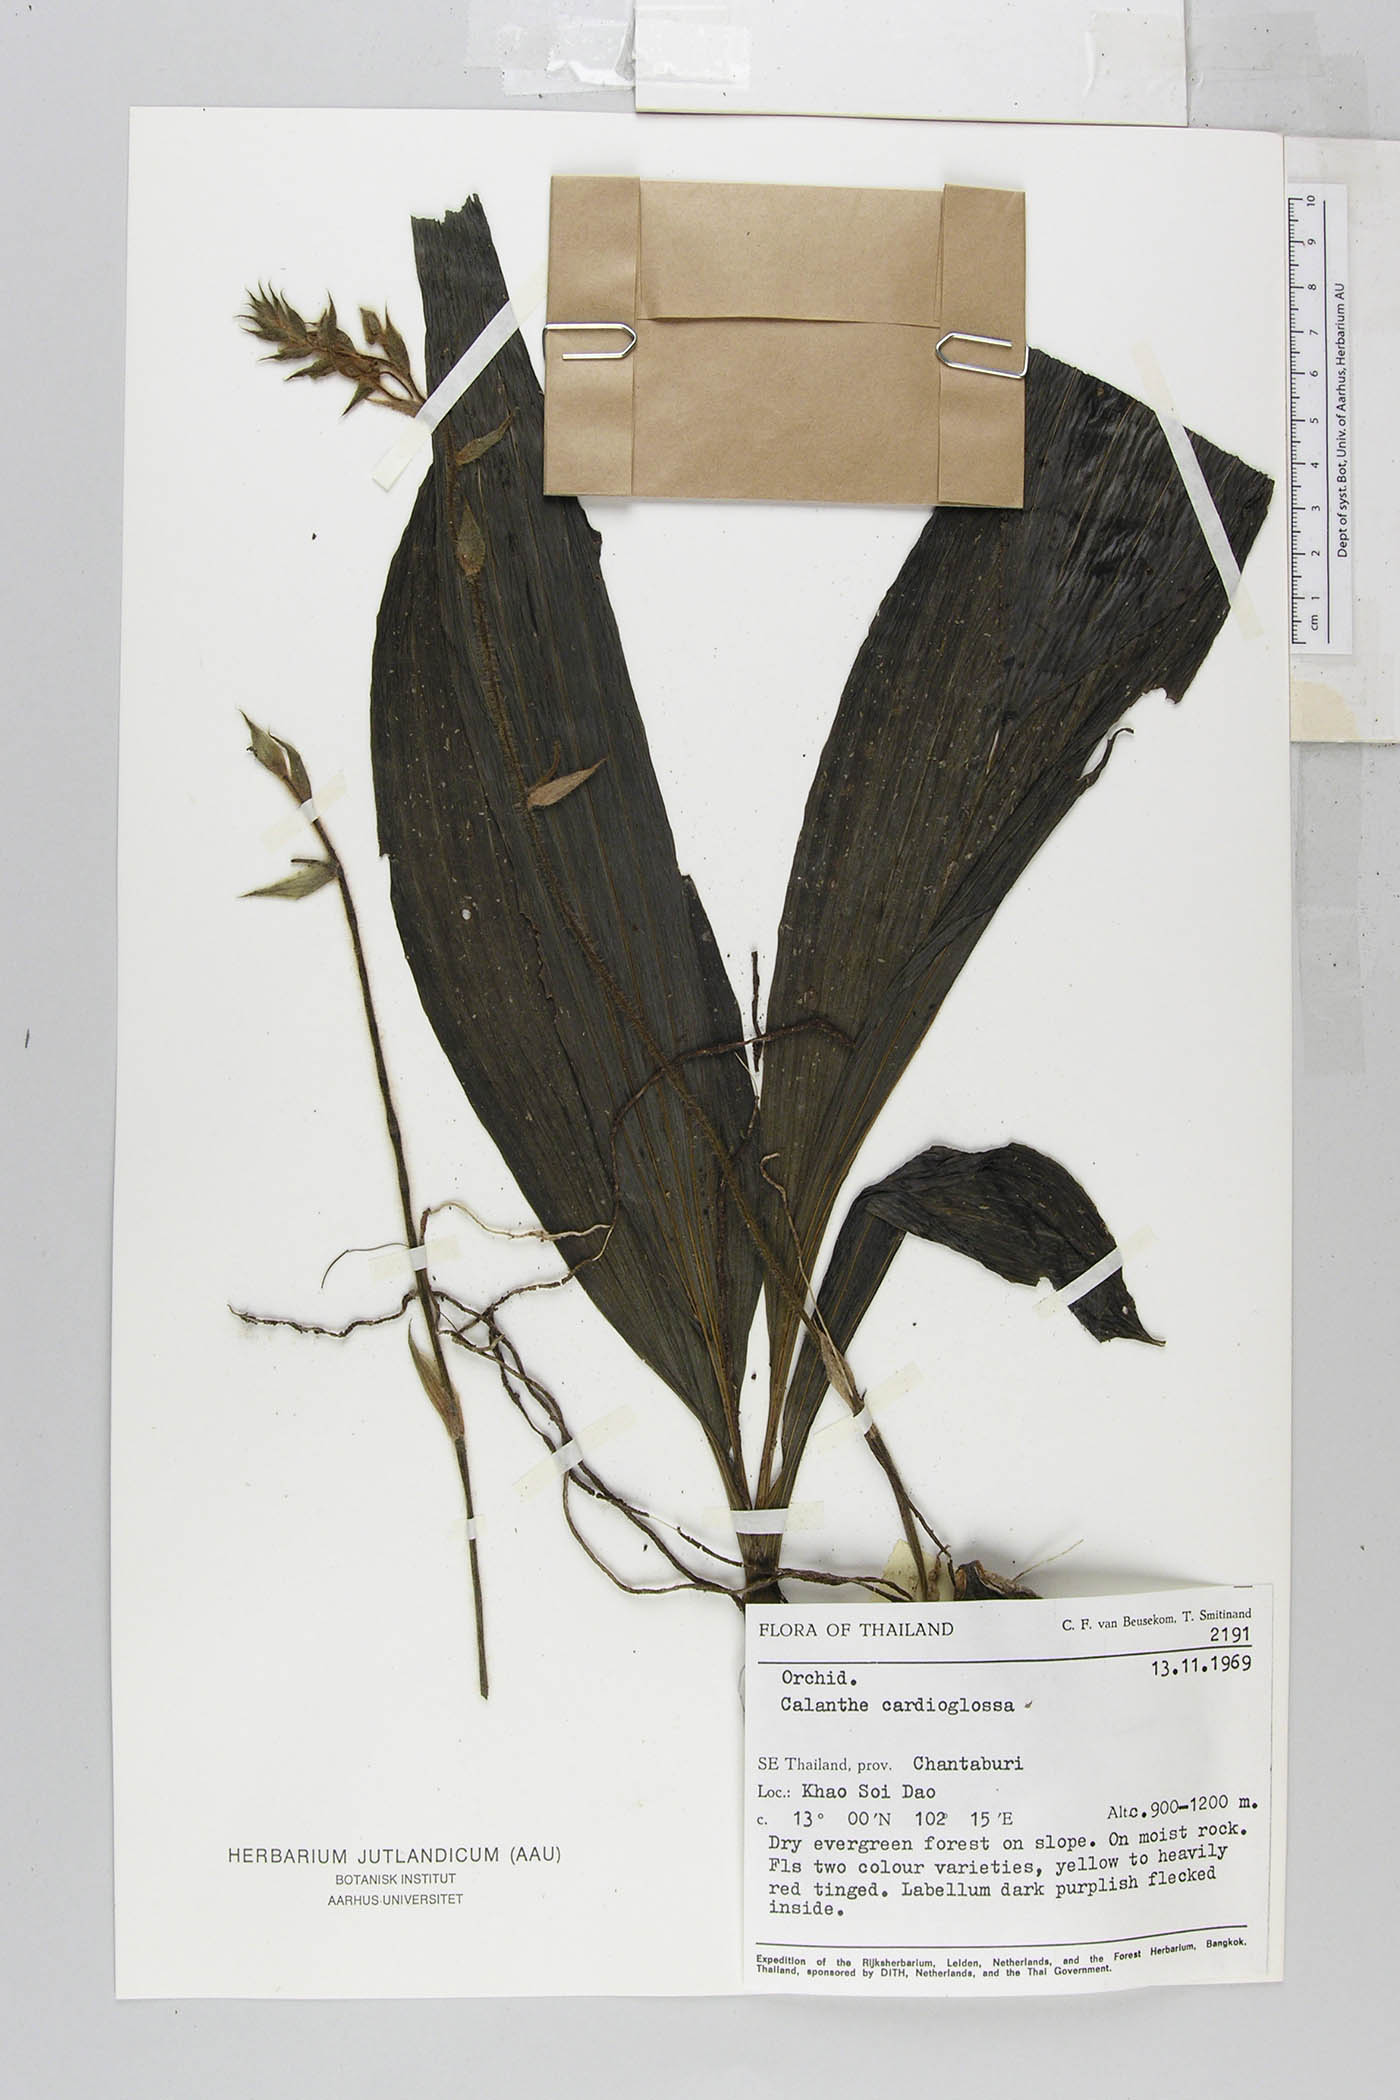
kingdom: Plantae
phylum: Tracheophyta
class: Liliopsida
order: Asparagales
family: Orchidaceae
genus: Calanthe
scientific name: Calanthe succedanea
